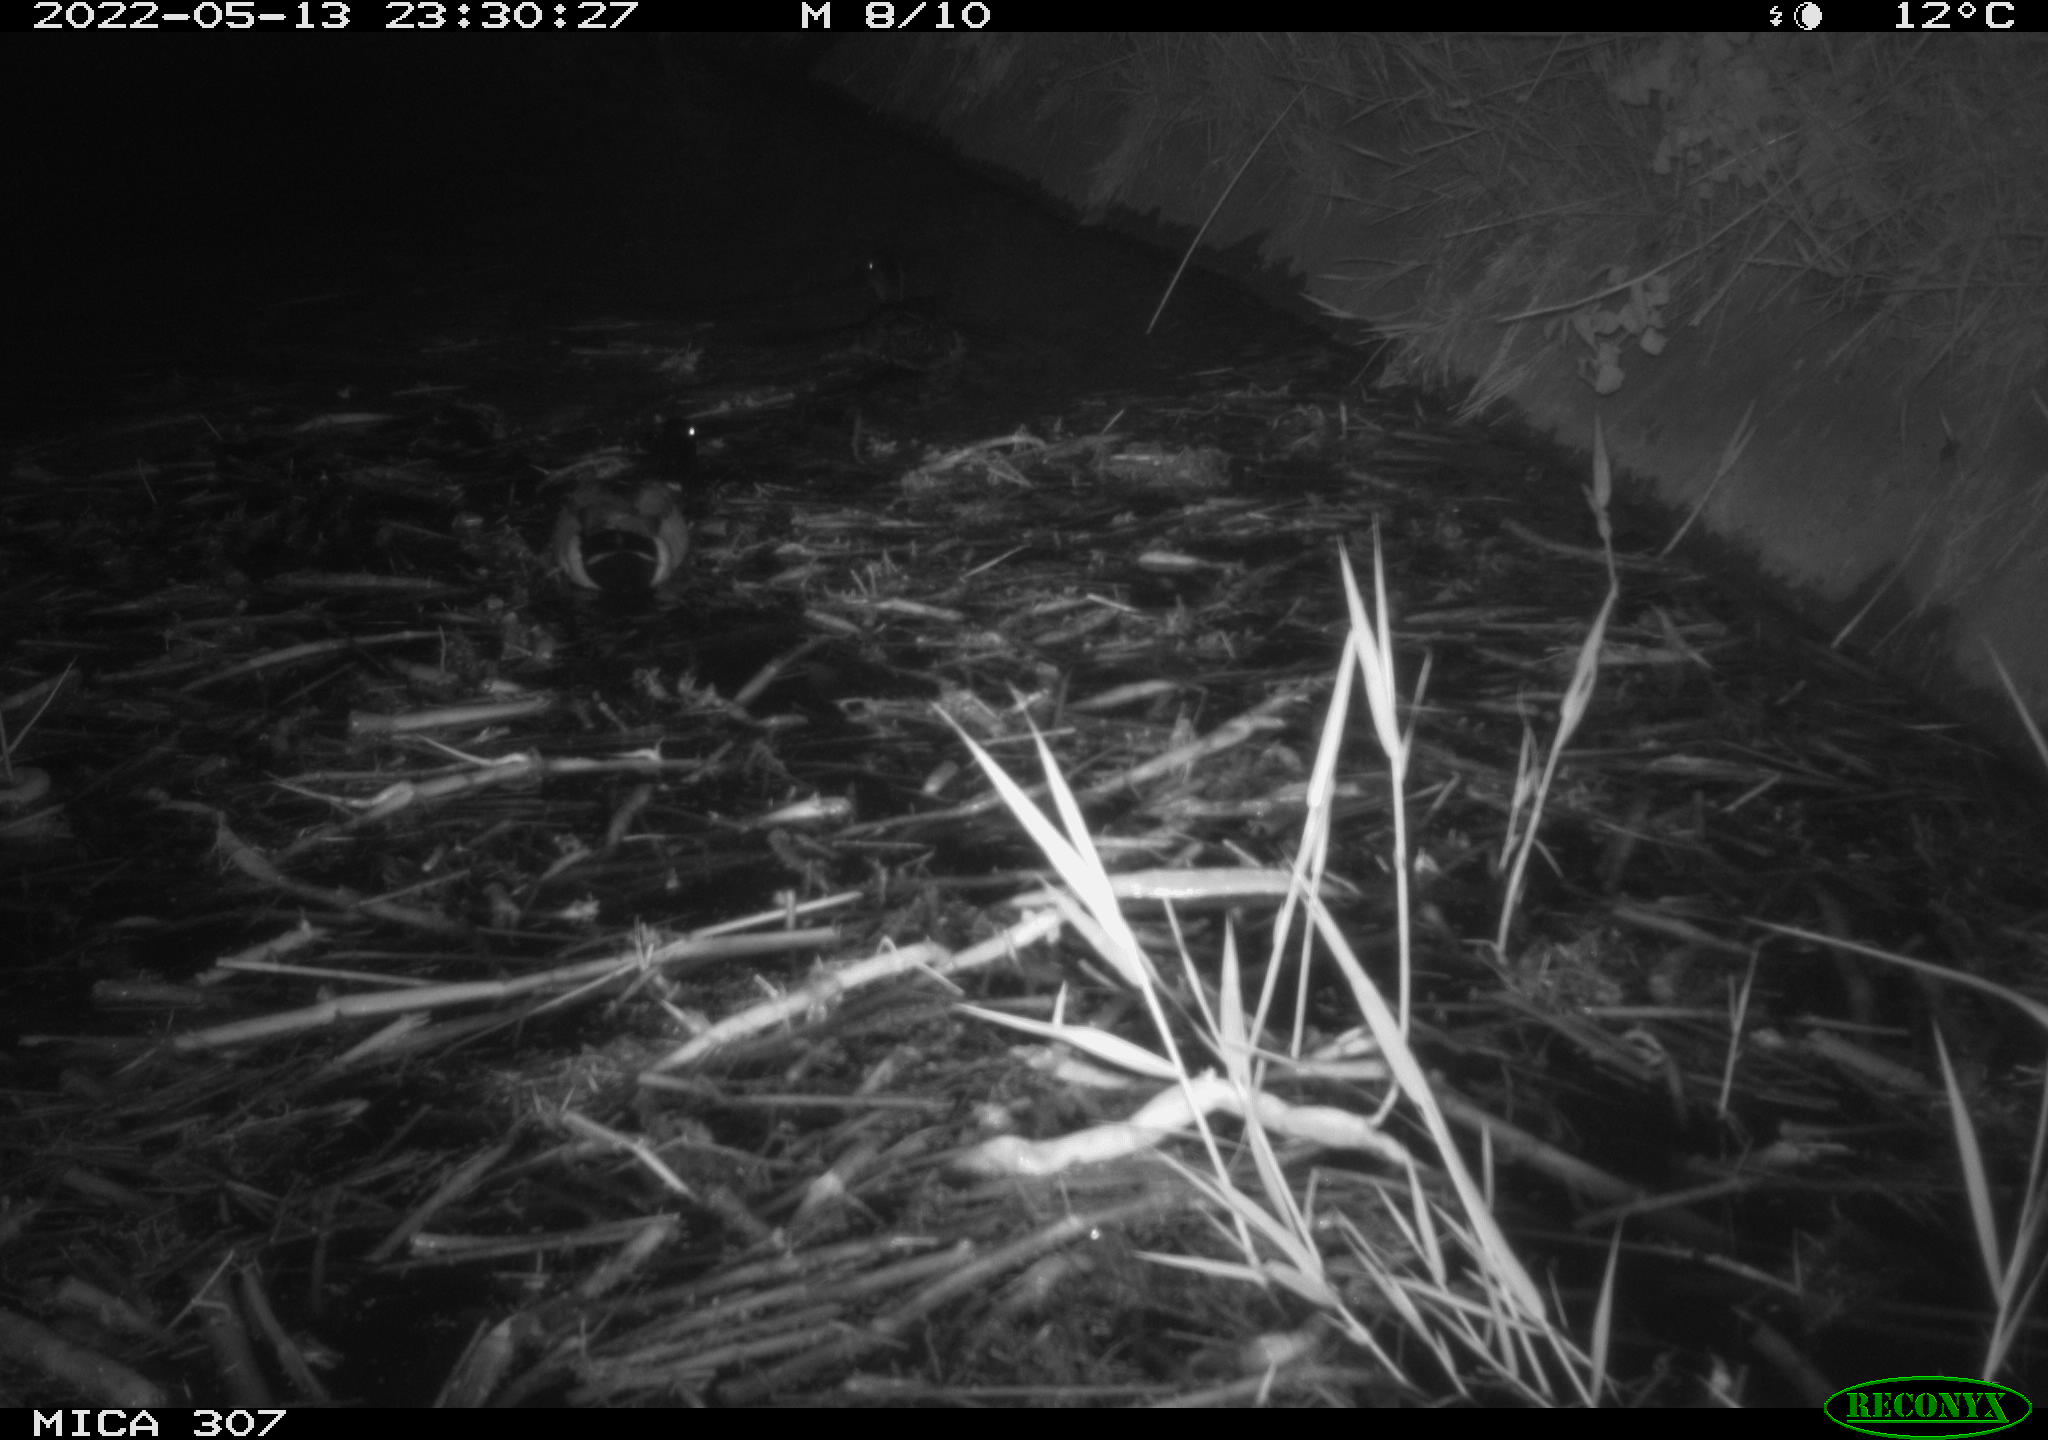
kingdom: Animalia
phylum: Chordata
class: Aves
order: Anseriformes
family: Anatidae
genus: Anas
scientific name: Anas platyrhynchos
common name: Mallard
